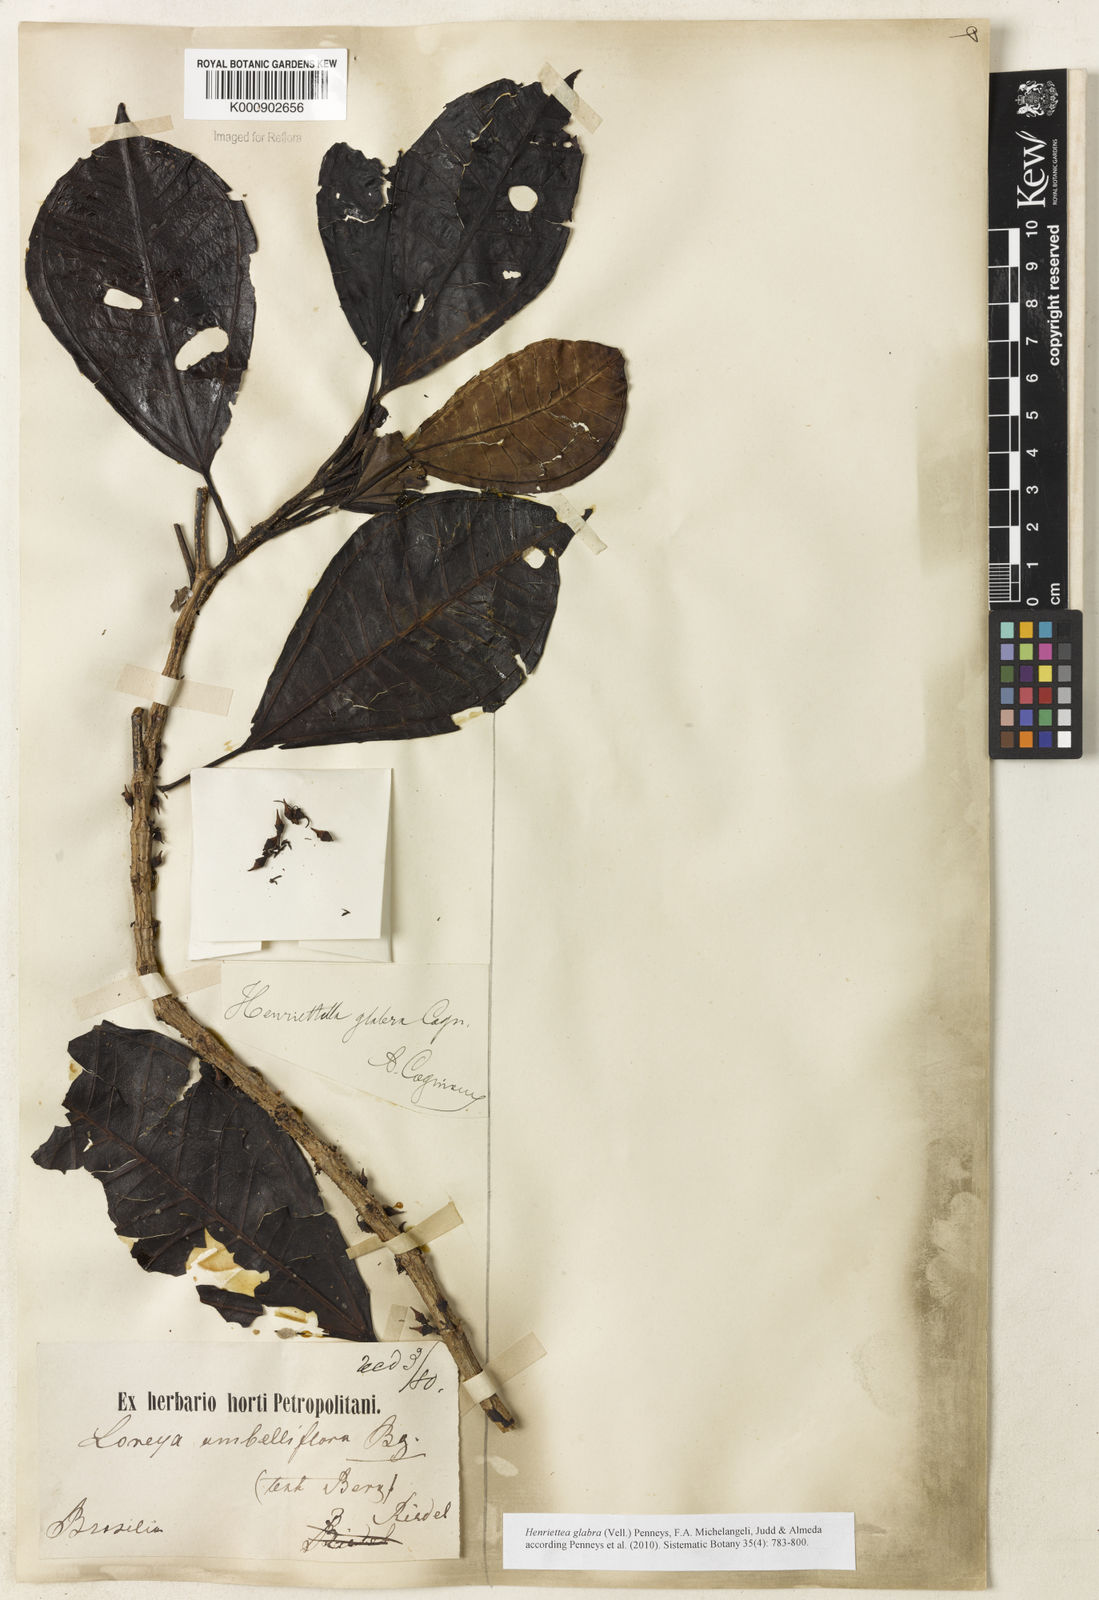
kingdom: Plantae
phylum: Tracheophyta
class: Magnoliopsida
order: Myrtales
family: Melastomataceae
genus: Henriettea
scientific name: Henriettea glabra
